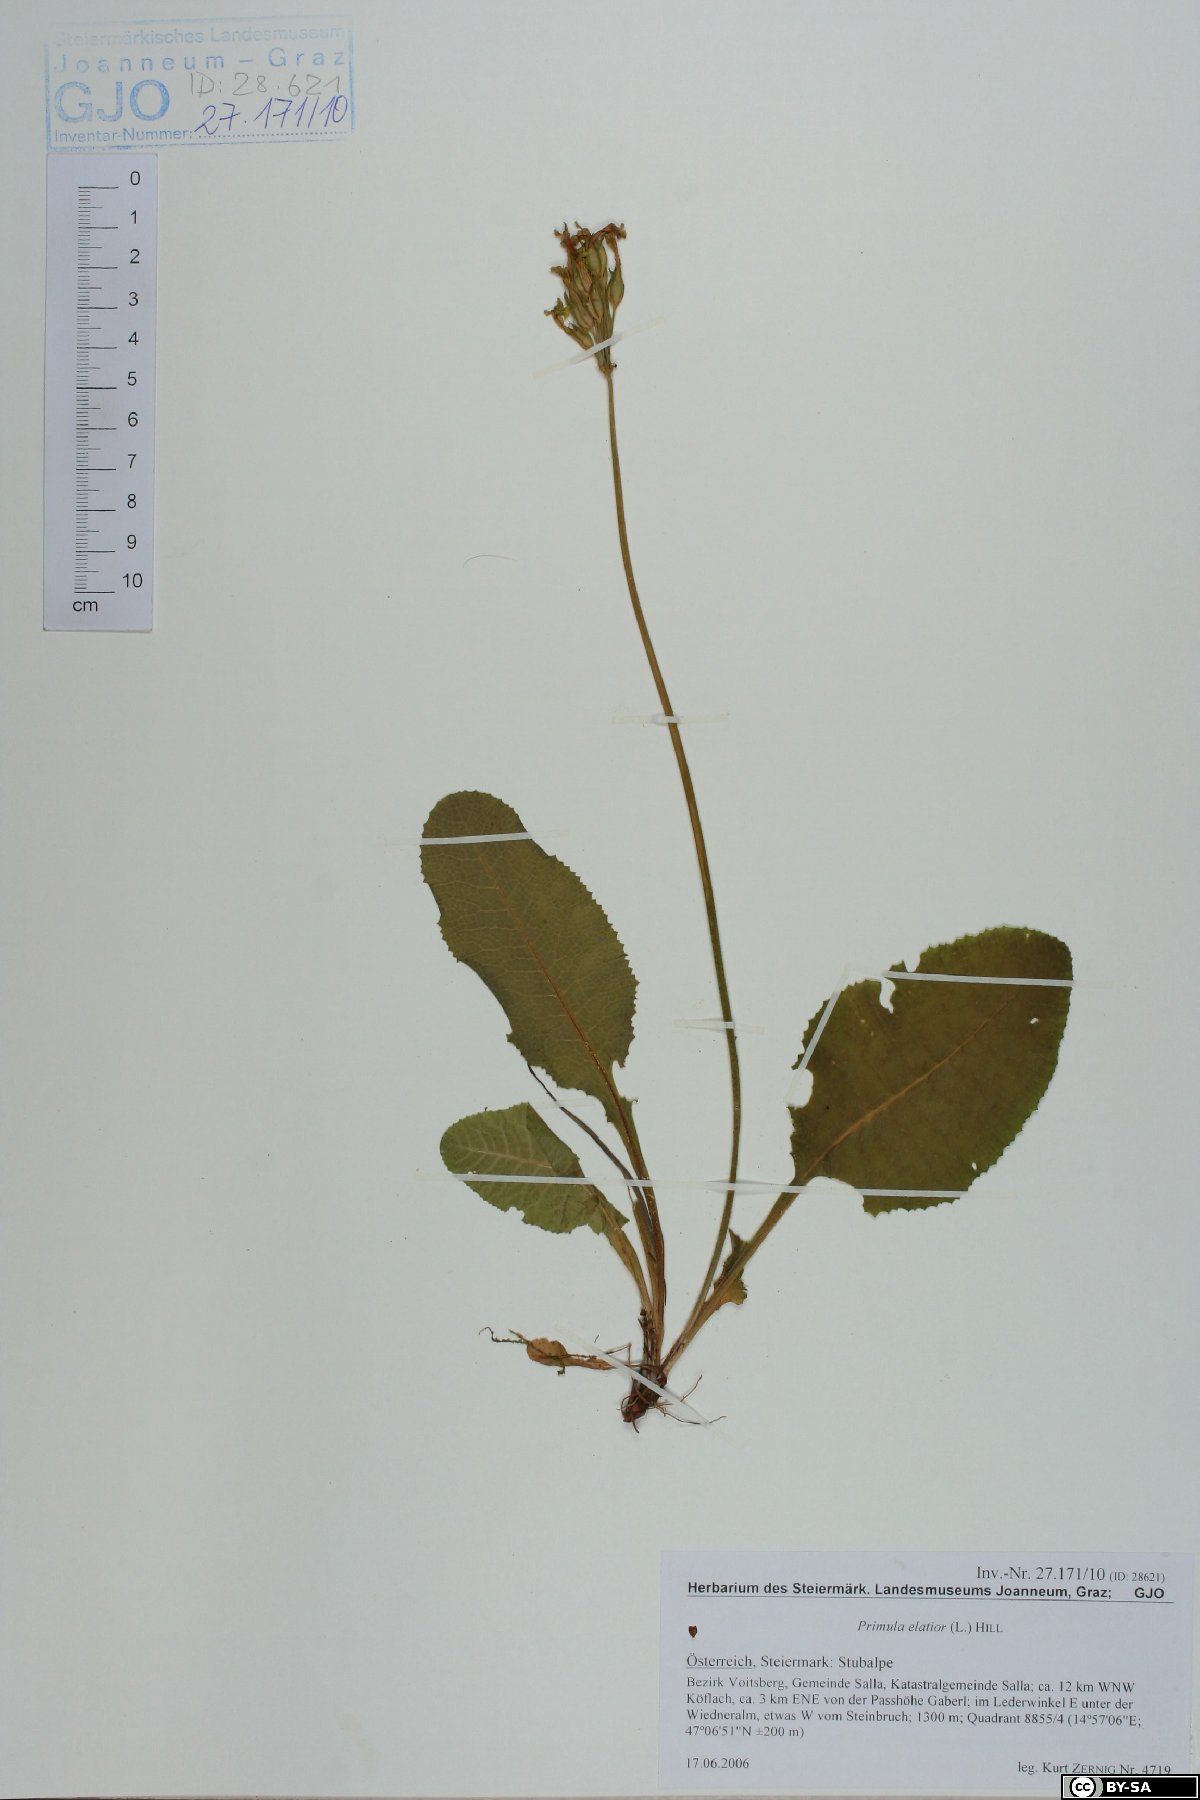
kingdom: Plantae
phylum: Tracheophyta
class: Magnoliopsida
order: Ericales
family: Primulaceae
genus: Primula
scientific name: Primula elatior
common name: Oxlip
